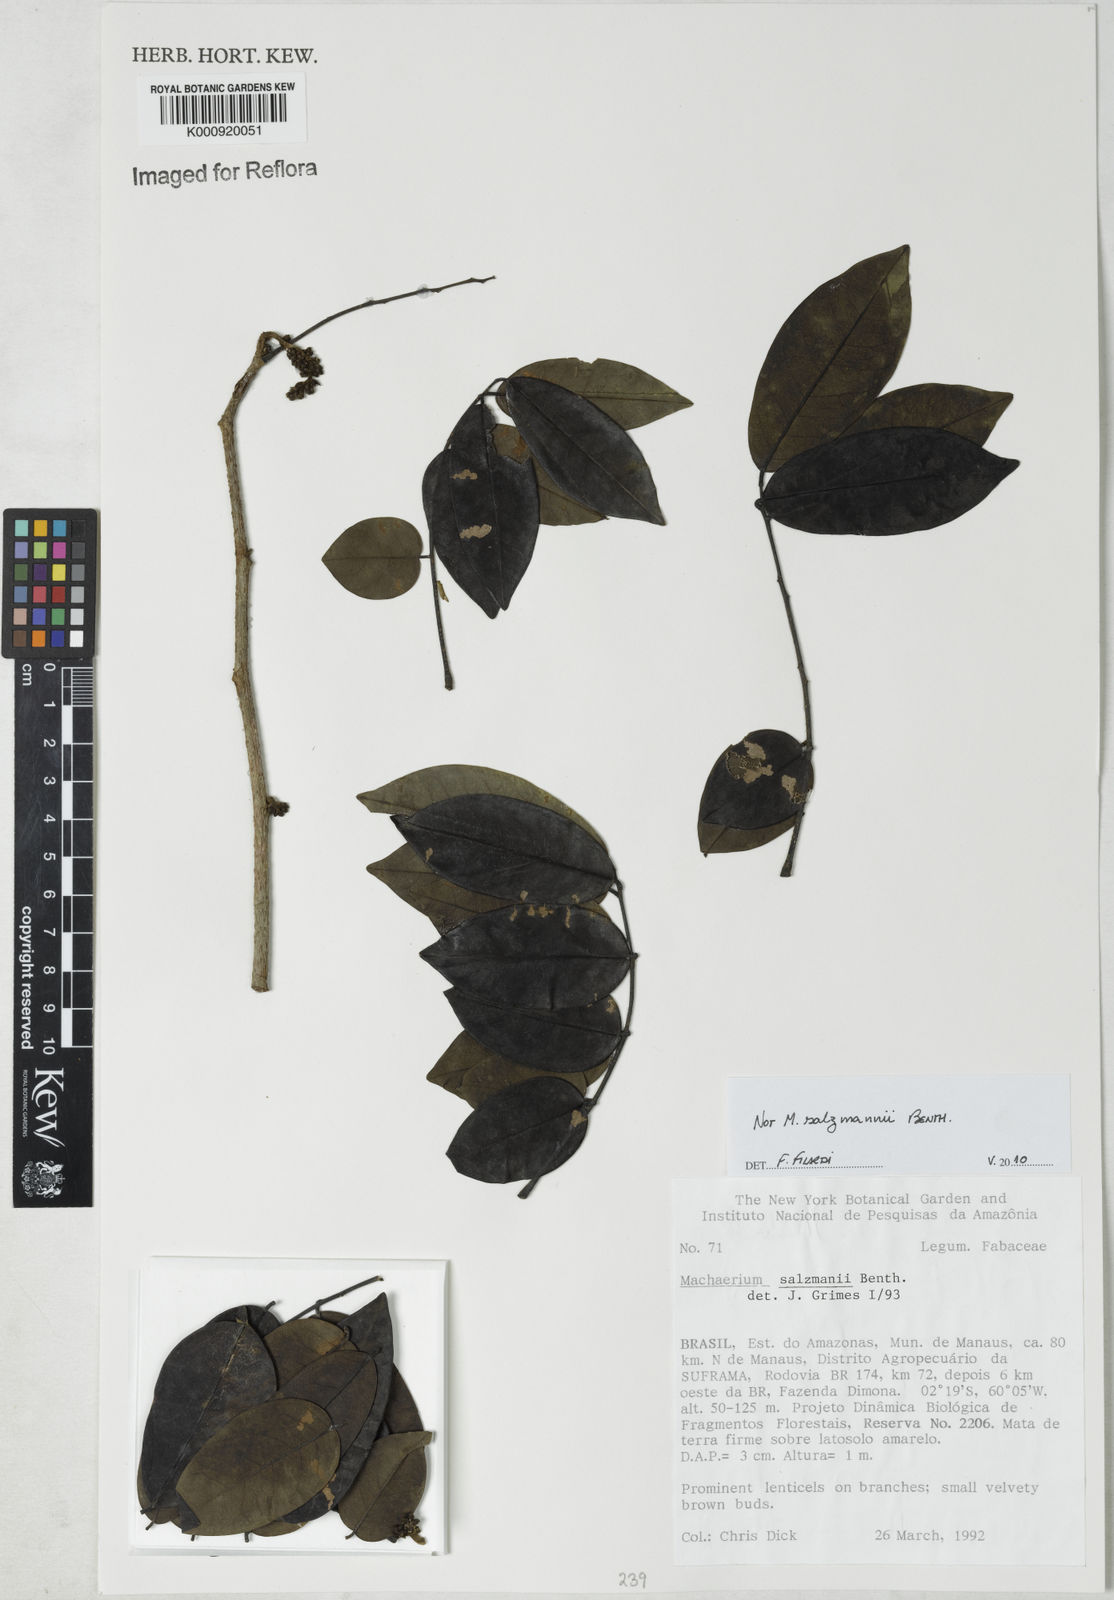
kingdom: Plantae
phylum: Tracheophyta
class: Magnoliopsida
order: Fabales
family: Fabaceae
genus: Machaerium
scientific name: Machaerium
